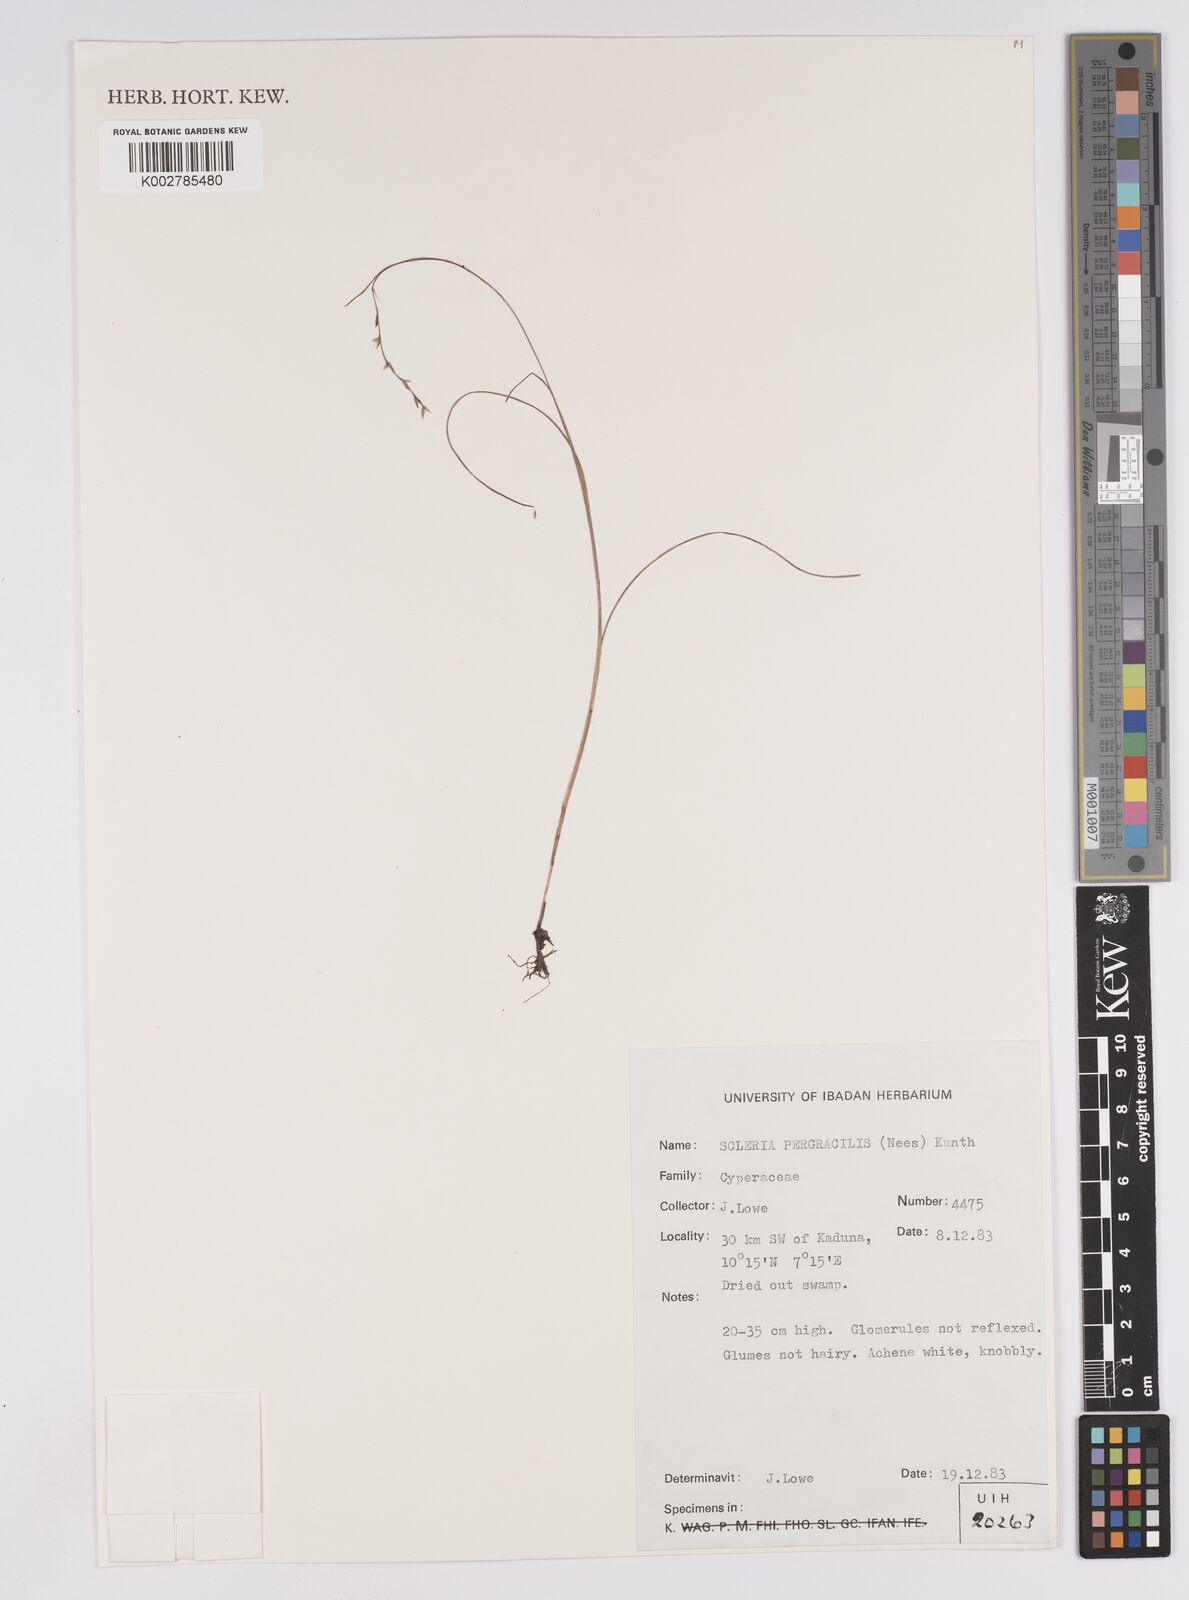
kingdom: Plantae
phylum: Tracheophyta
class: Liliopsida
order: Poales
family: Cyperaceae
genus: Scleria
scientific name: Scleria pergracilis
